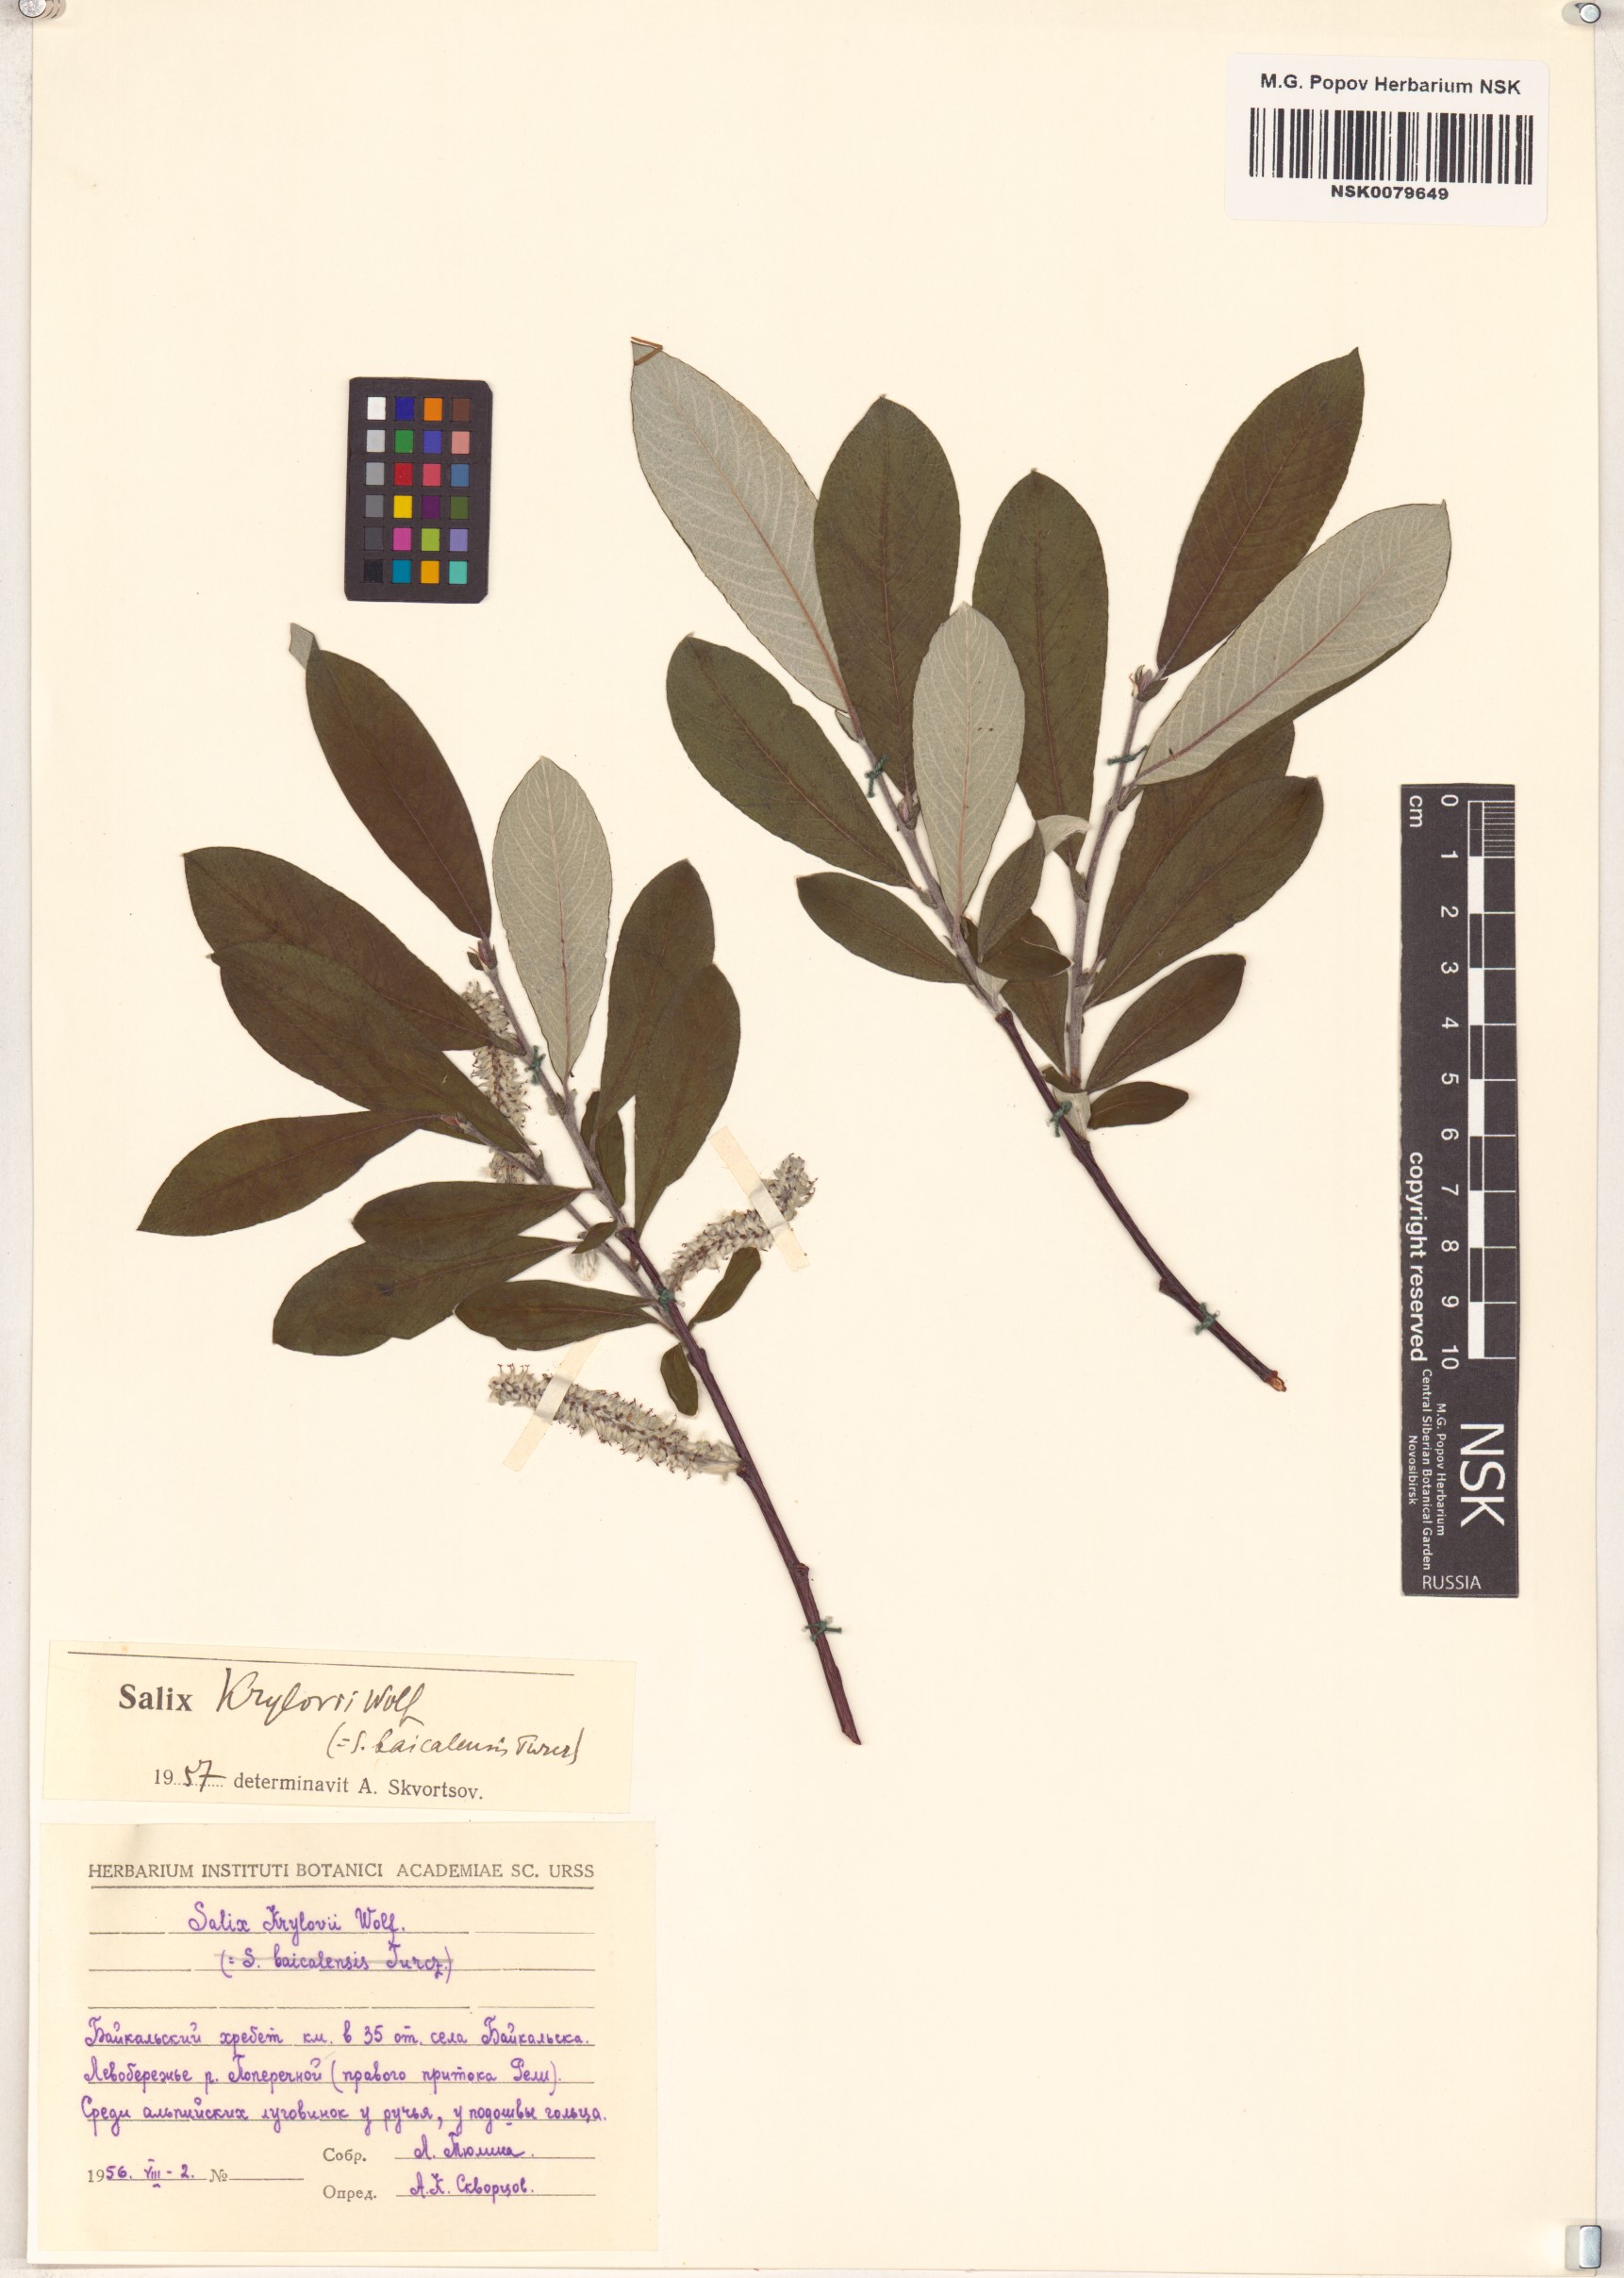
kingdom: Plantae
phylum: Tracheophyta
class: Magnoliopsida
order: Malpighiales
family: Salicaceae
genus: Salix
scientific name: Salix krylovii
